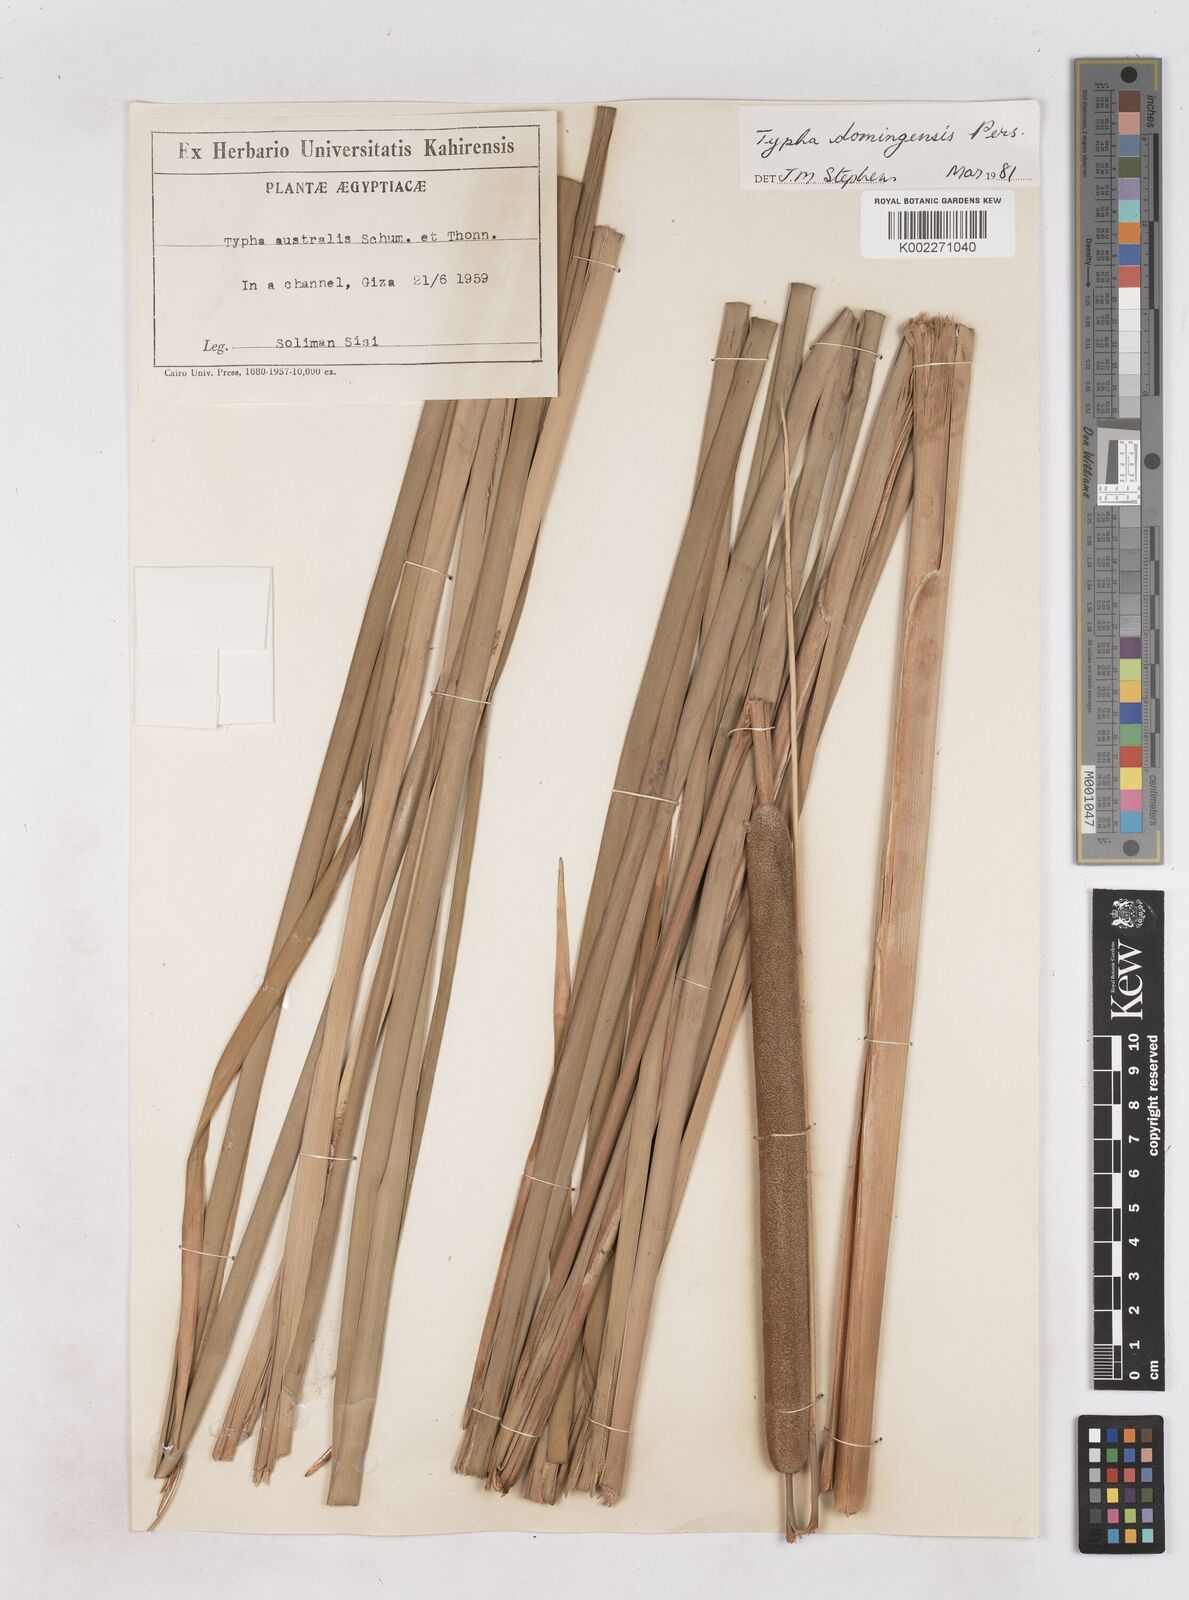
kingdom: Plantae
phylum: Tracheophyta
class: Liliopsida
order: Poales
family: Typhaceae
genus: Typha
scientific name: Typha domingensis
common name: Southern cattail
